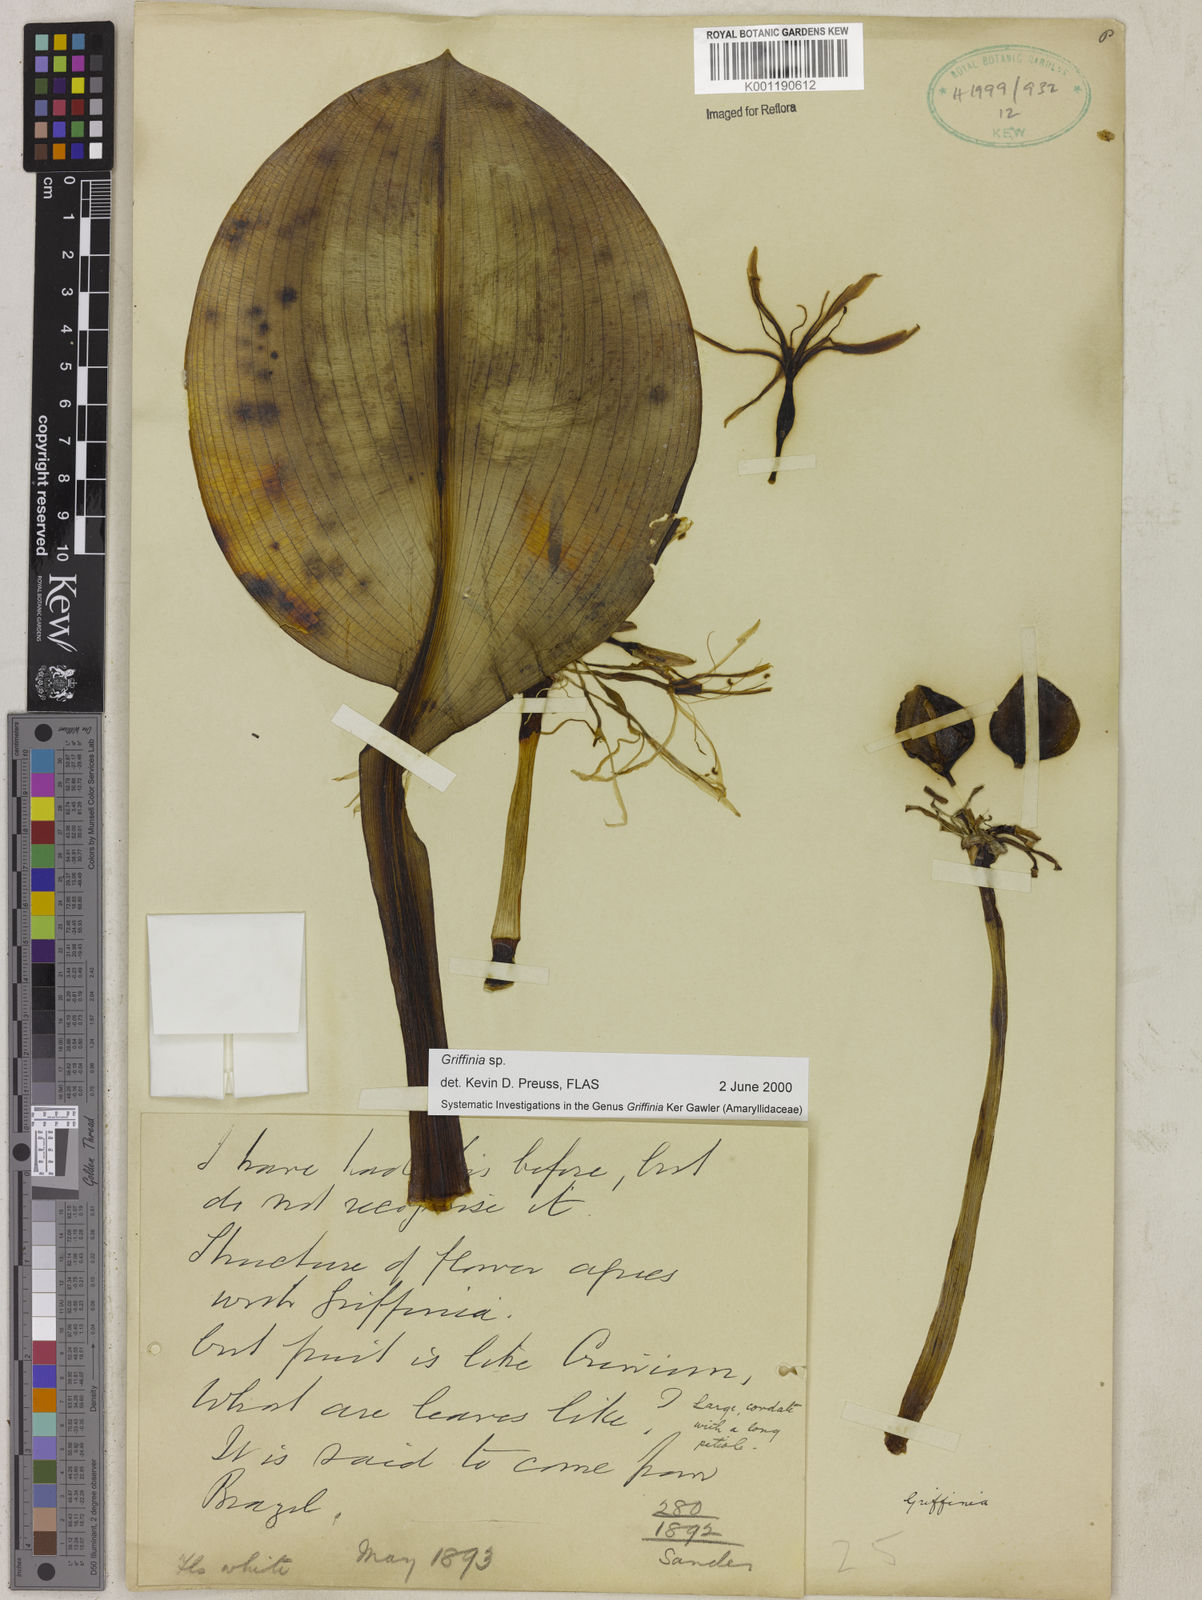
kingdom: Plantae
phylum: Tracheophyta
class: Liliopsida
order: Asparagales
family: Amaryllidaceae
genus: Griffinia
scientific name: Griffinia
